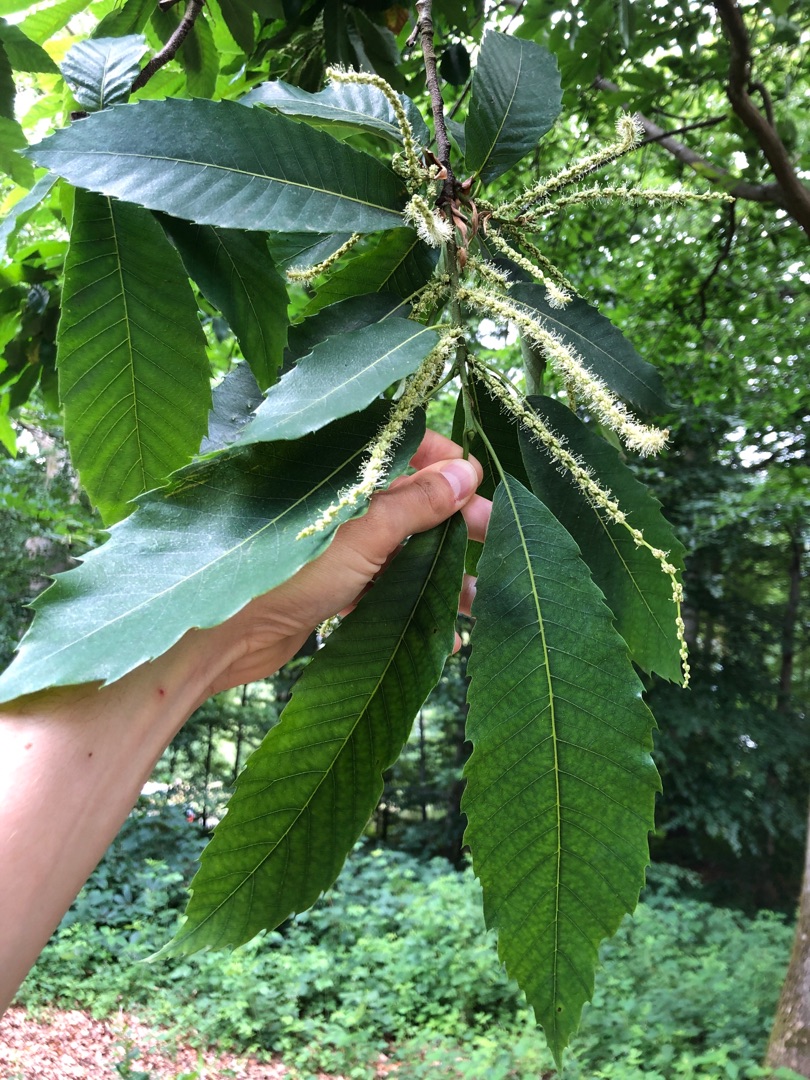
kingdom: Plantae
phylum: Tracheophyta
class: Magnoliopsida
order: Fagales
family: Fagaceae
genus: Castanea
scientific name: Castanea sativa
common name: Ægte kastanie
